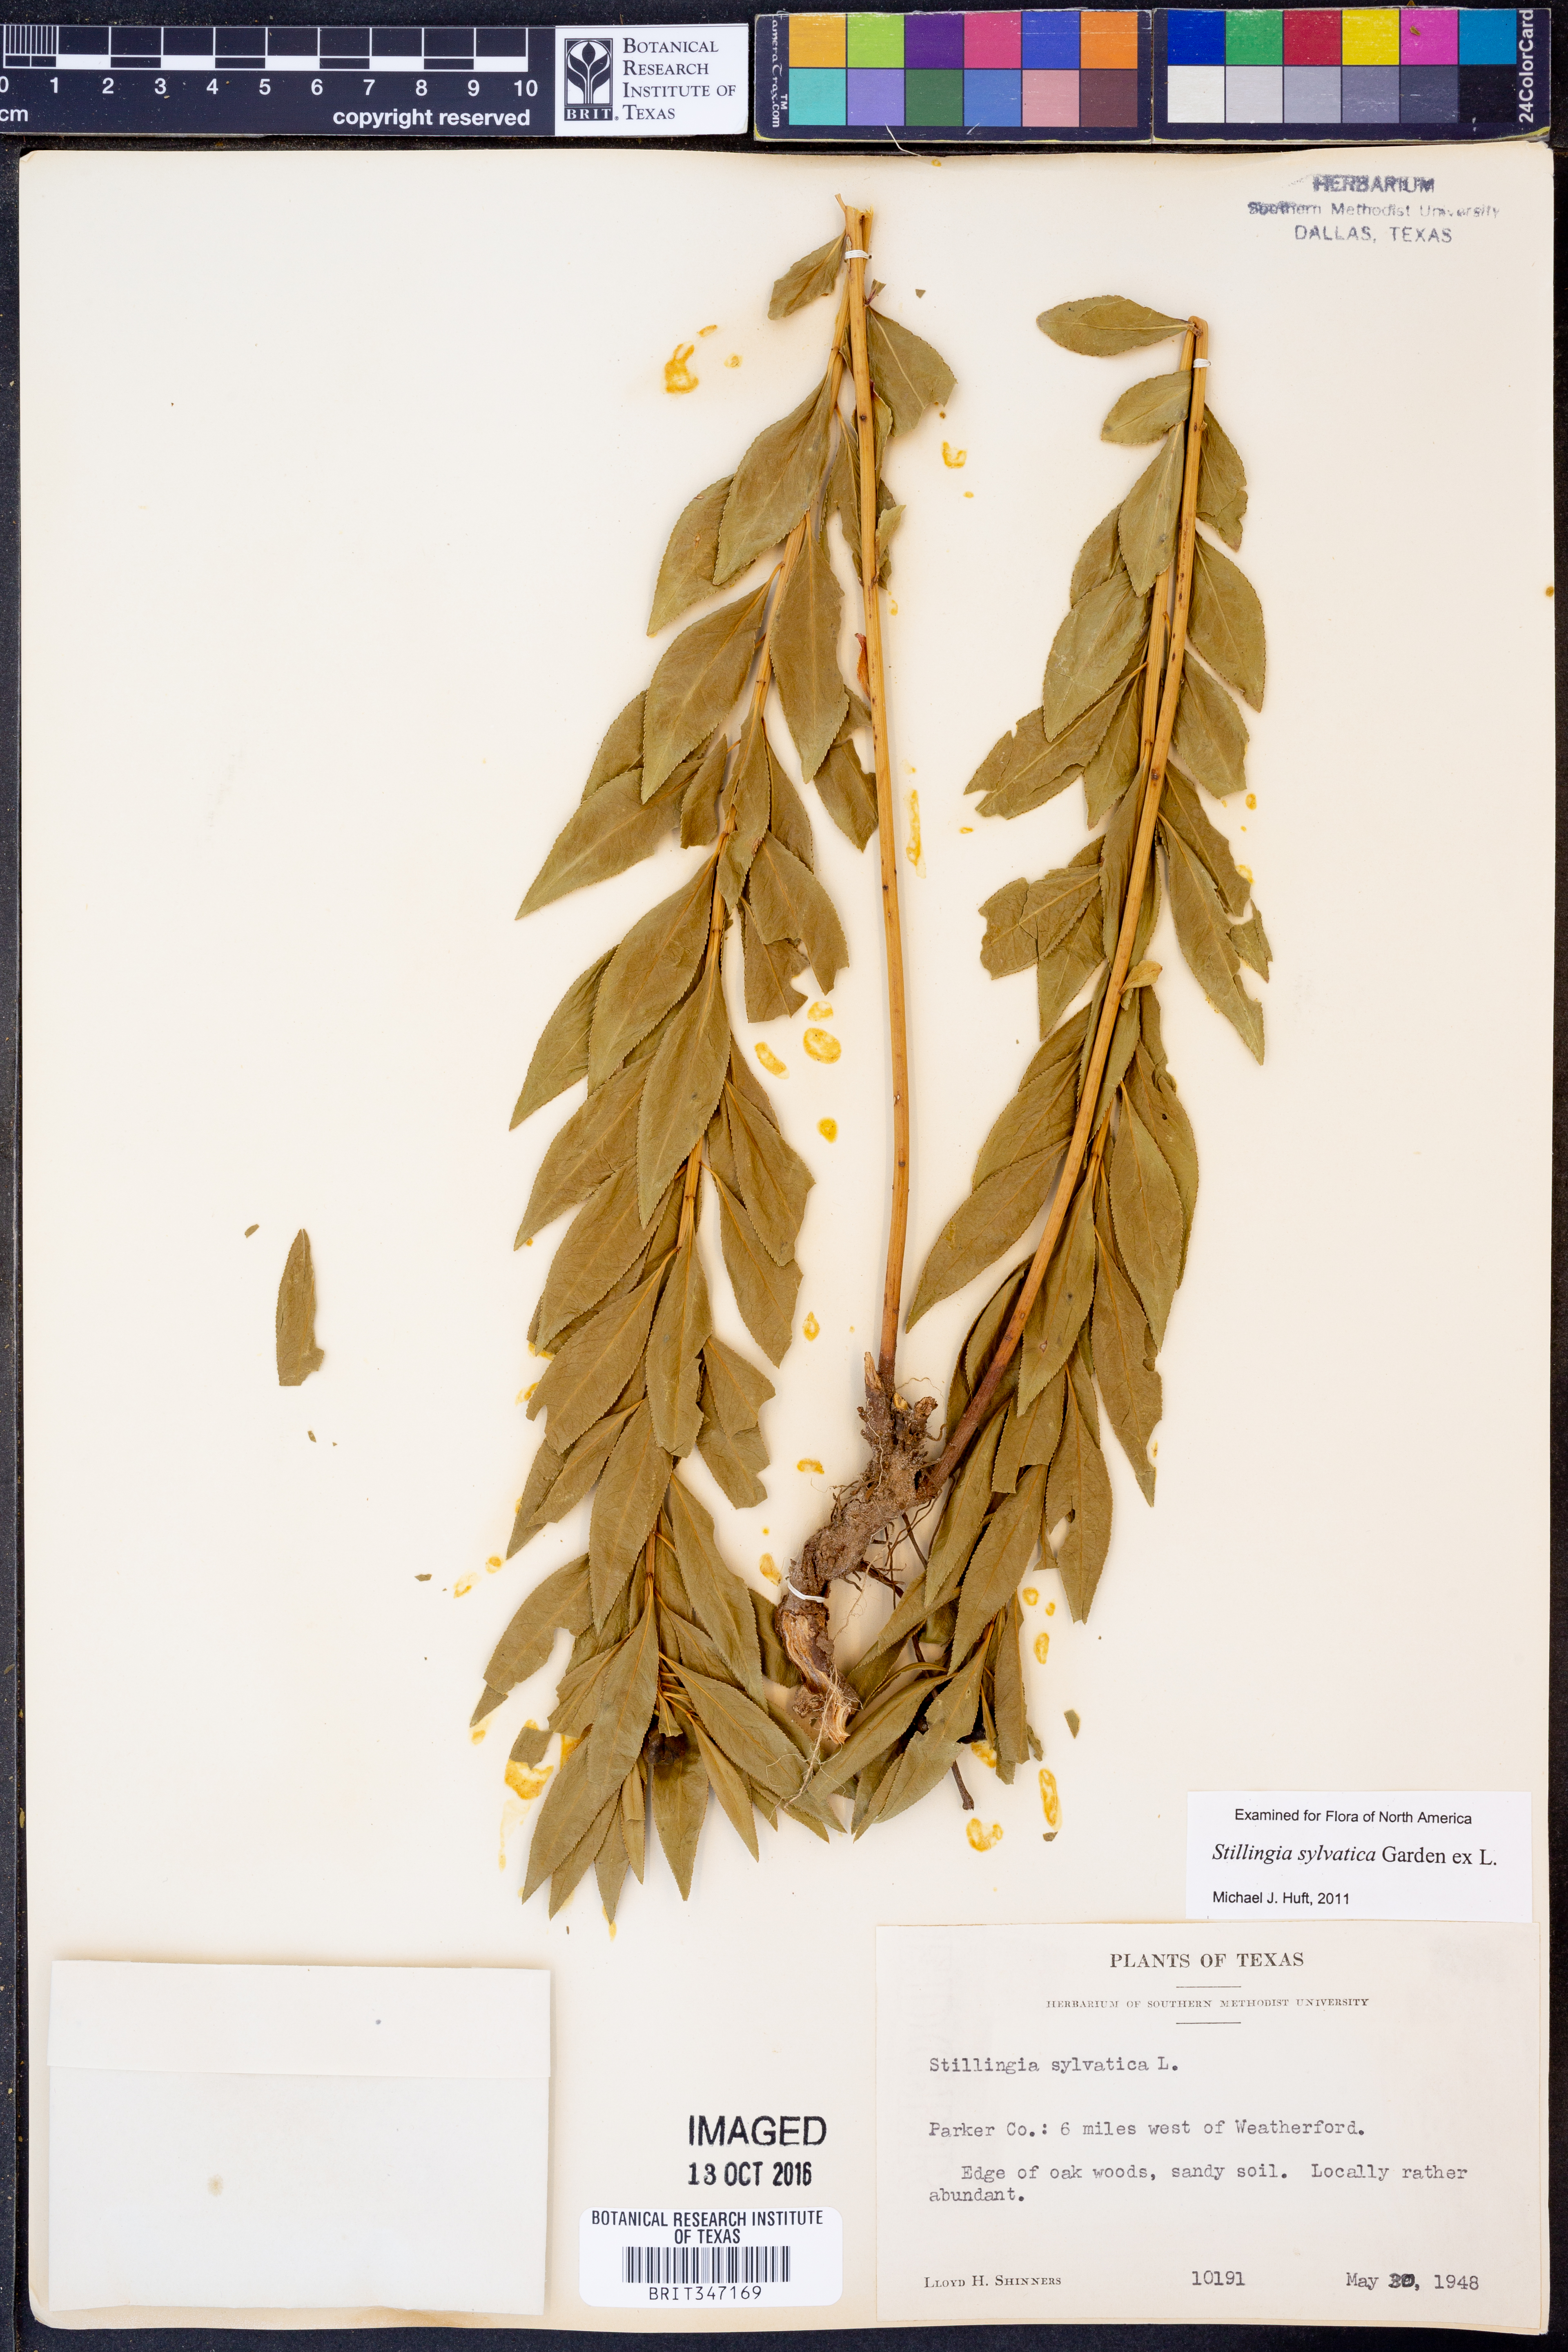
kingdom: Plantae
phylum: Tracheophyta
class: Magnoliopsida
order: Malpighiales
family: Euphorbiaceae
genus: Stillingia
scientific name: Stillingia sylvatica
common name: Queen's-delight
